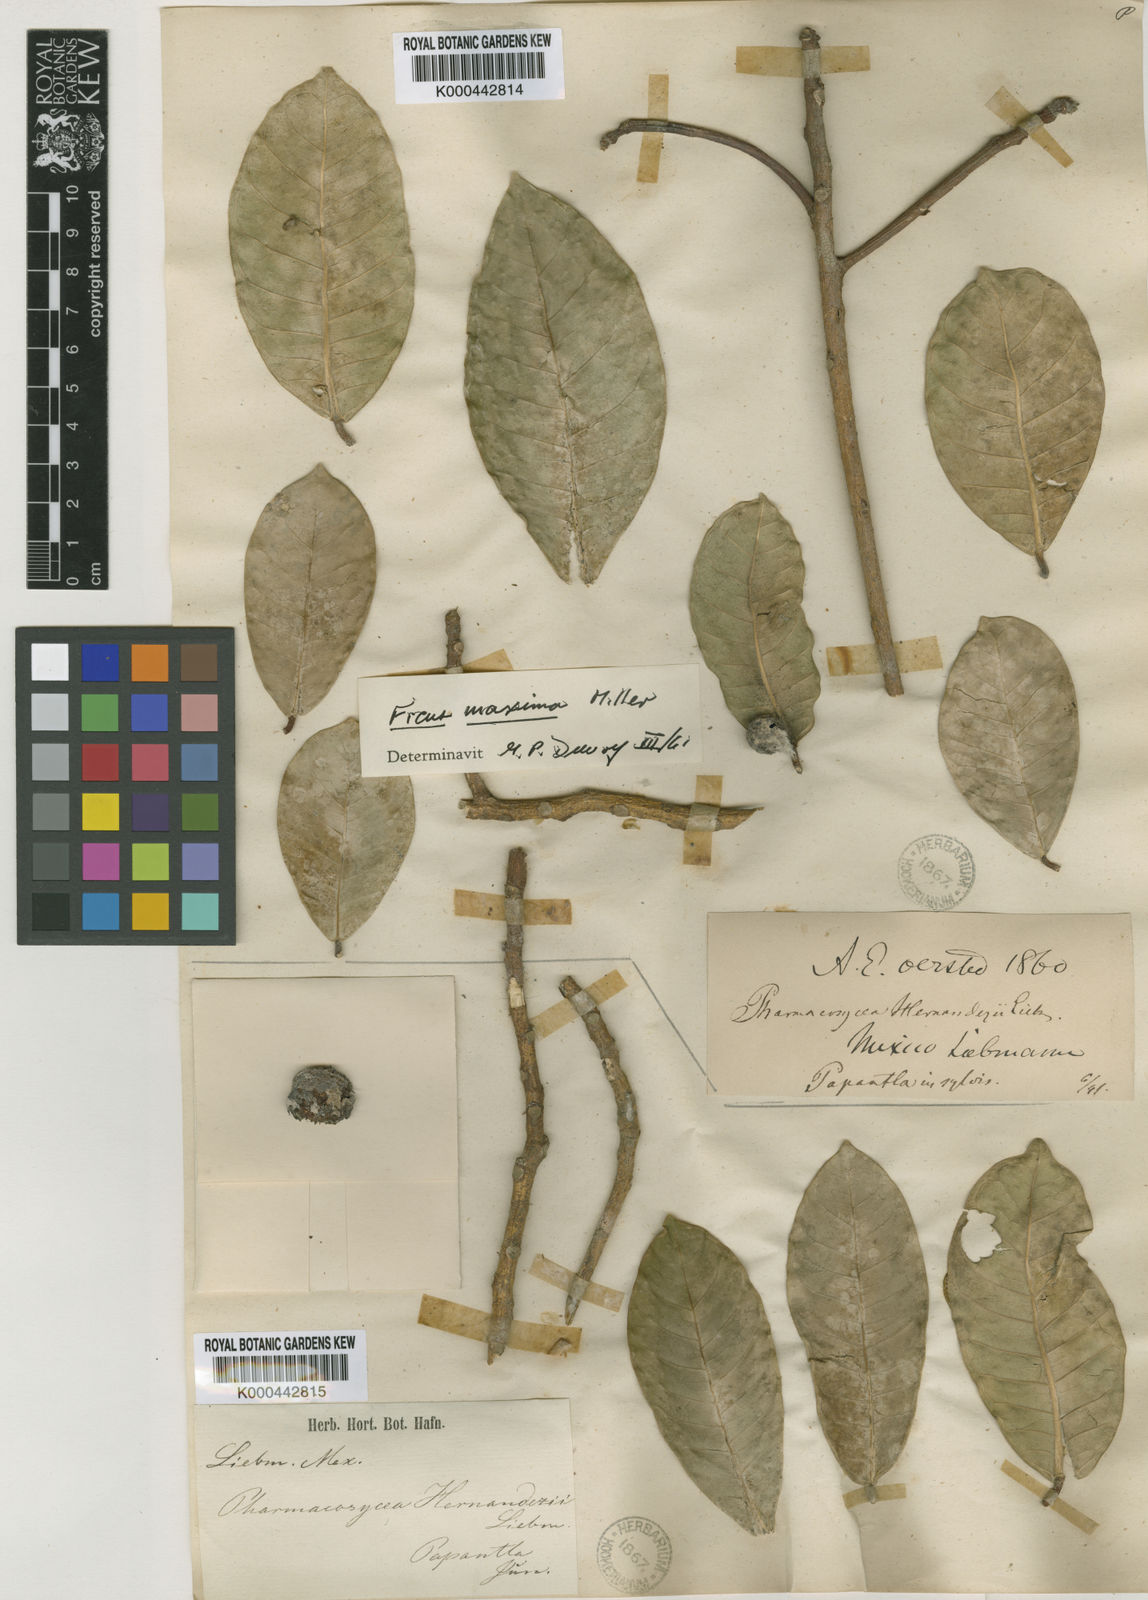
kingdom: Plantae
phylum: Tracheophyta
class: Magnoliopsida
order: Rosales
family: Moraceae
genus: Ficus
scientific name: Ficus maxima
